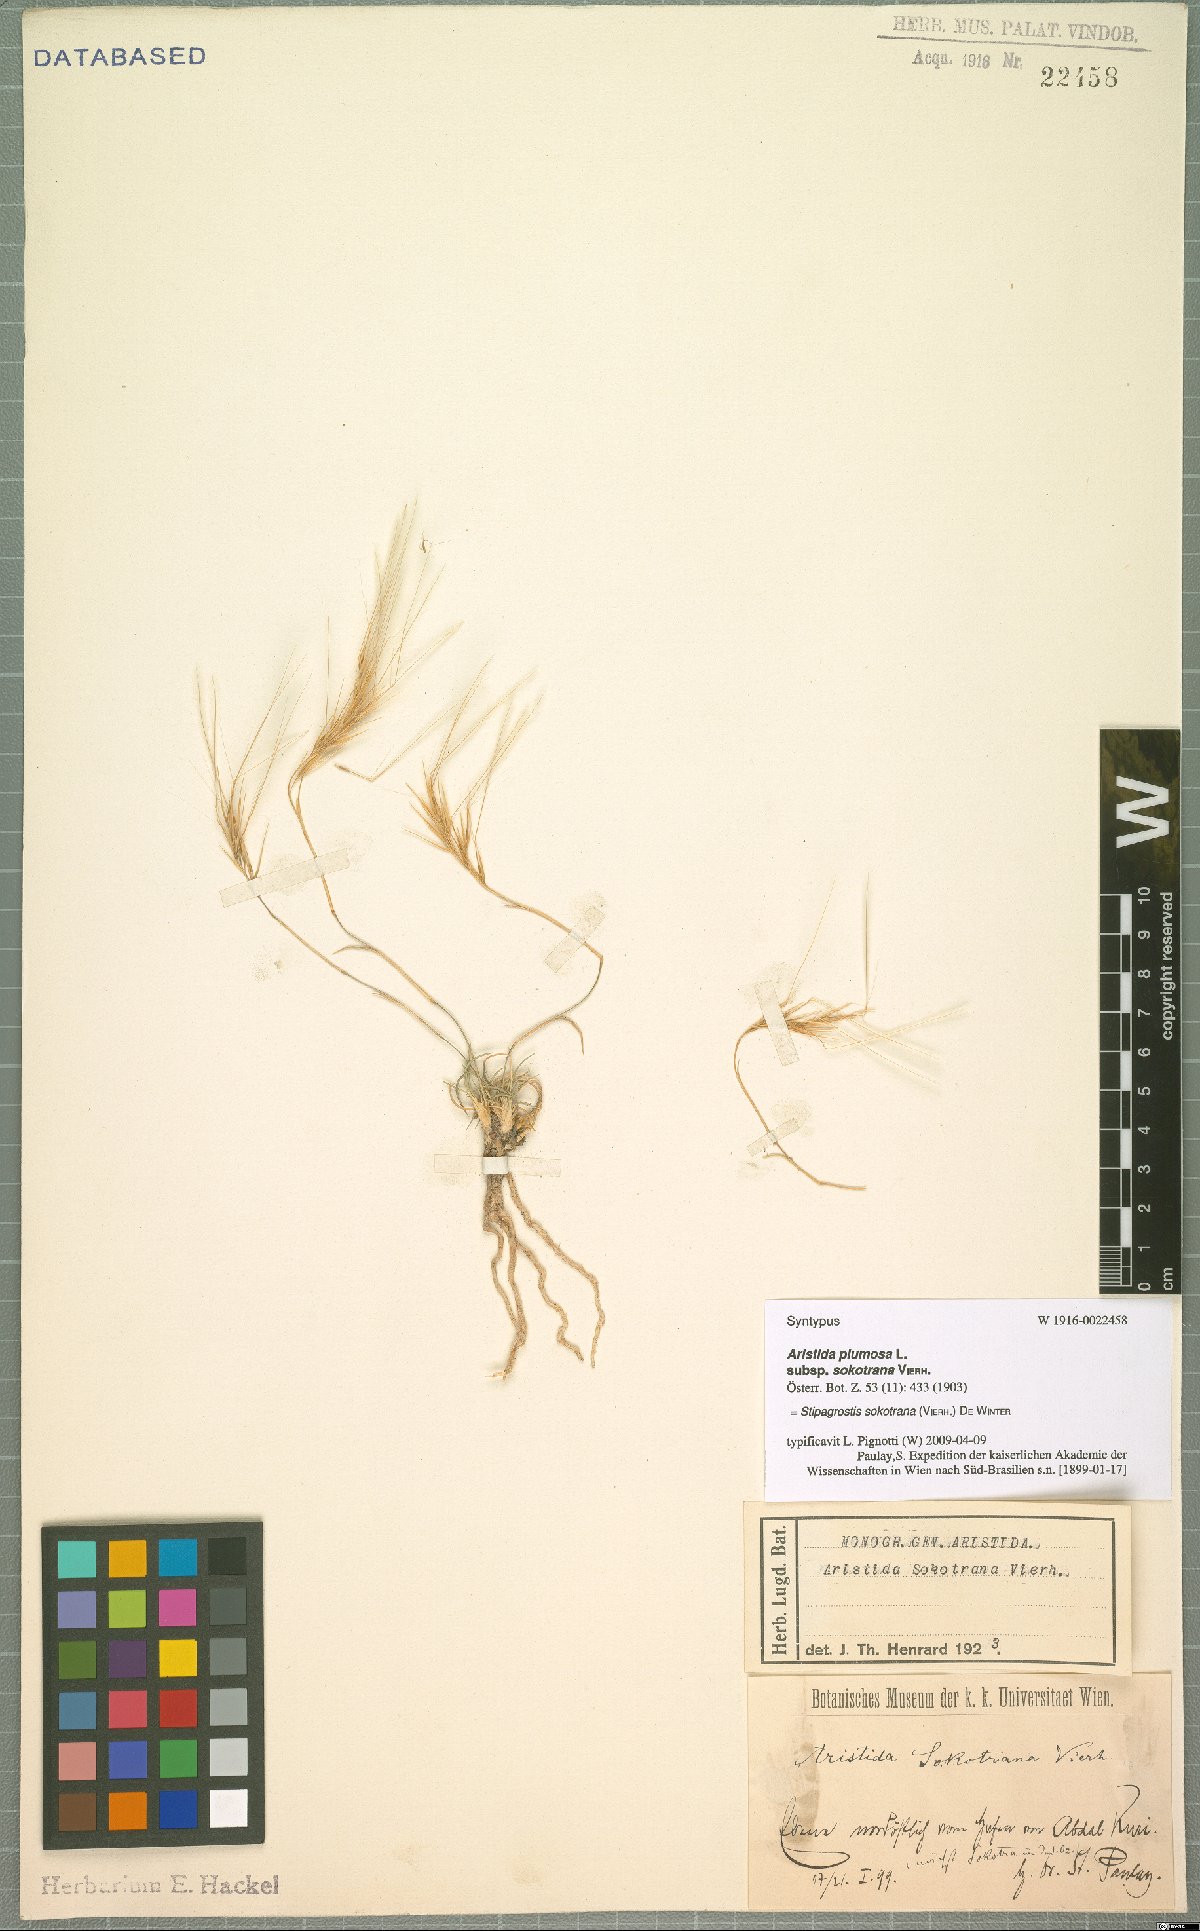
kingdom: Plantae
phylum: Tracheophyta
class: Liliopsida
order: Poales
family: Poaceae
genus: Stipagrostis
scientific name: Stipagrostis sokotrana
